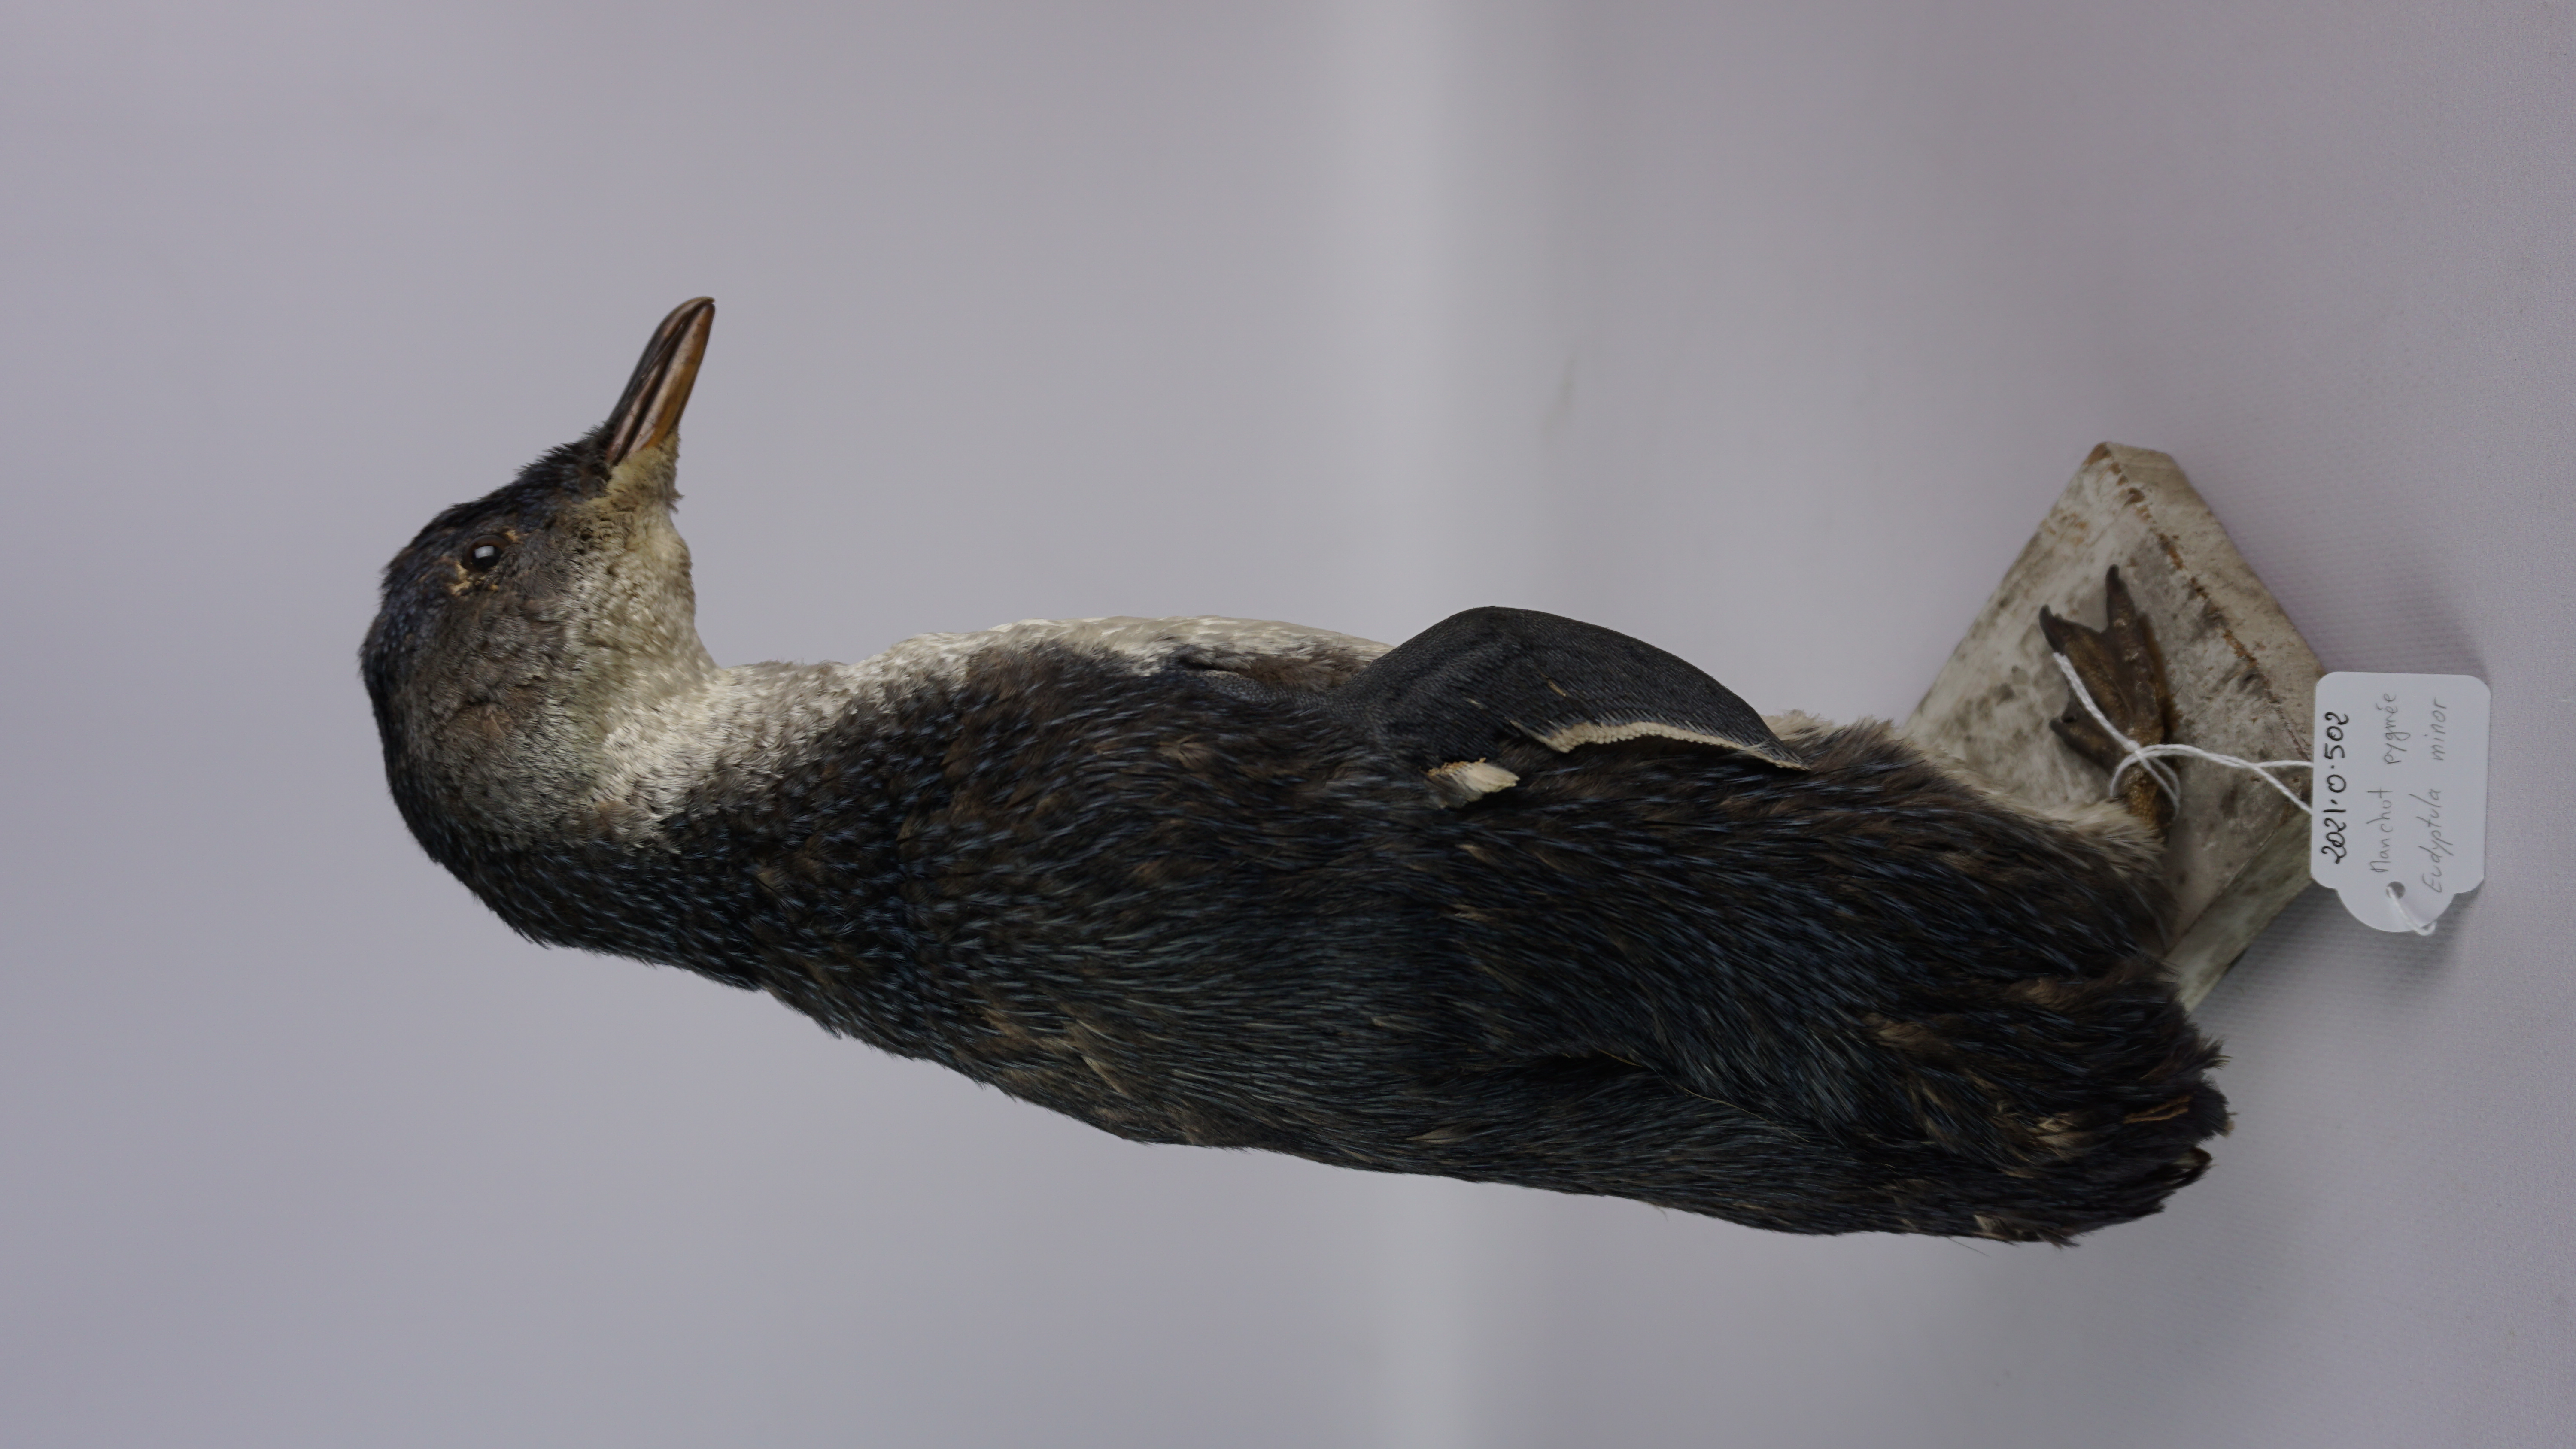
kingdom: Animalia
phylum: Chordata
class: Aves
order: Sphenisciformes
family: Spheniscidae
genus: Eudyptula
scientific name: Eudyptula minor
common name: Little penguin
